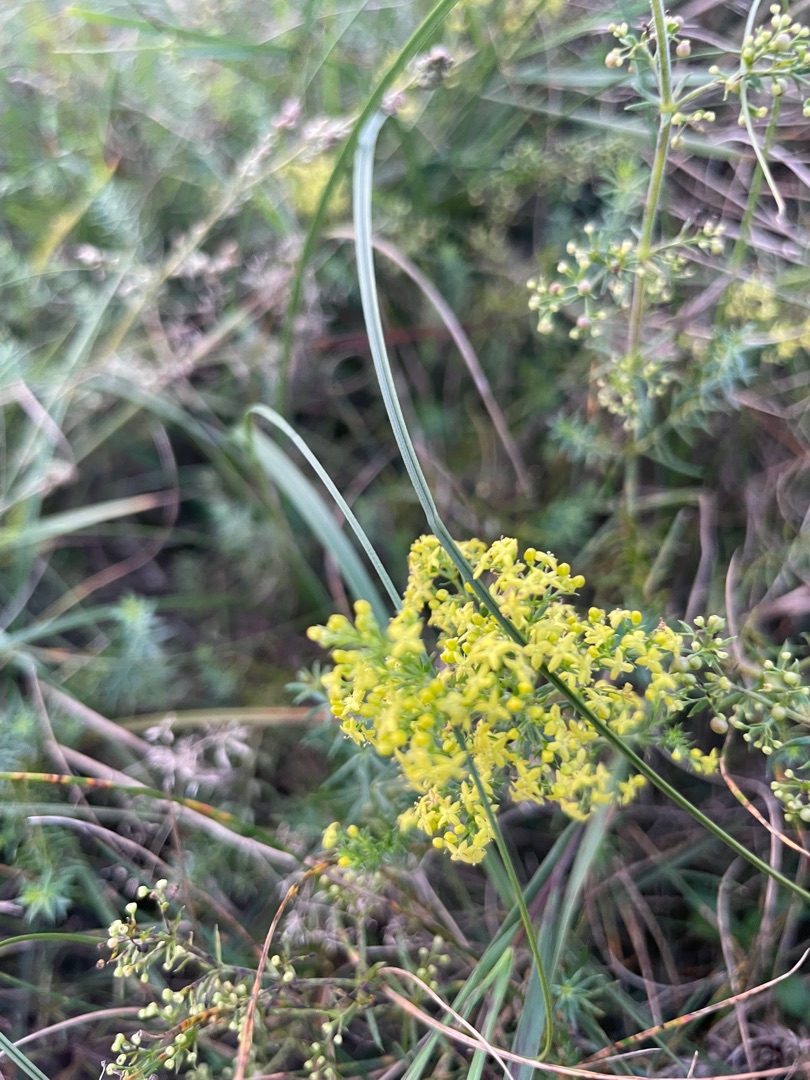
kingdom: Plantae
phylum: Tracheophyta
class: Magnoliopsida
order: Gentianales
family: Rubiaceae
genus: Galium
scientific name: Galium verum
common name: Gul snerre
